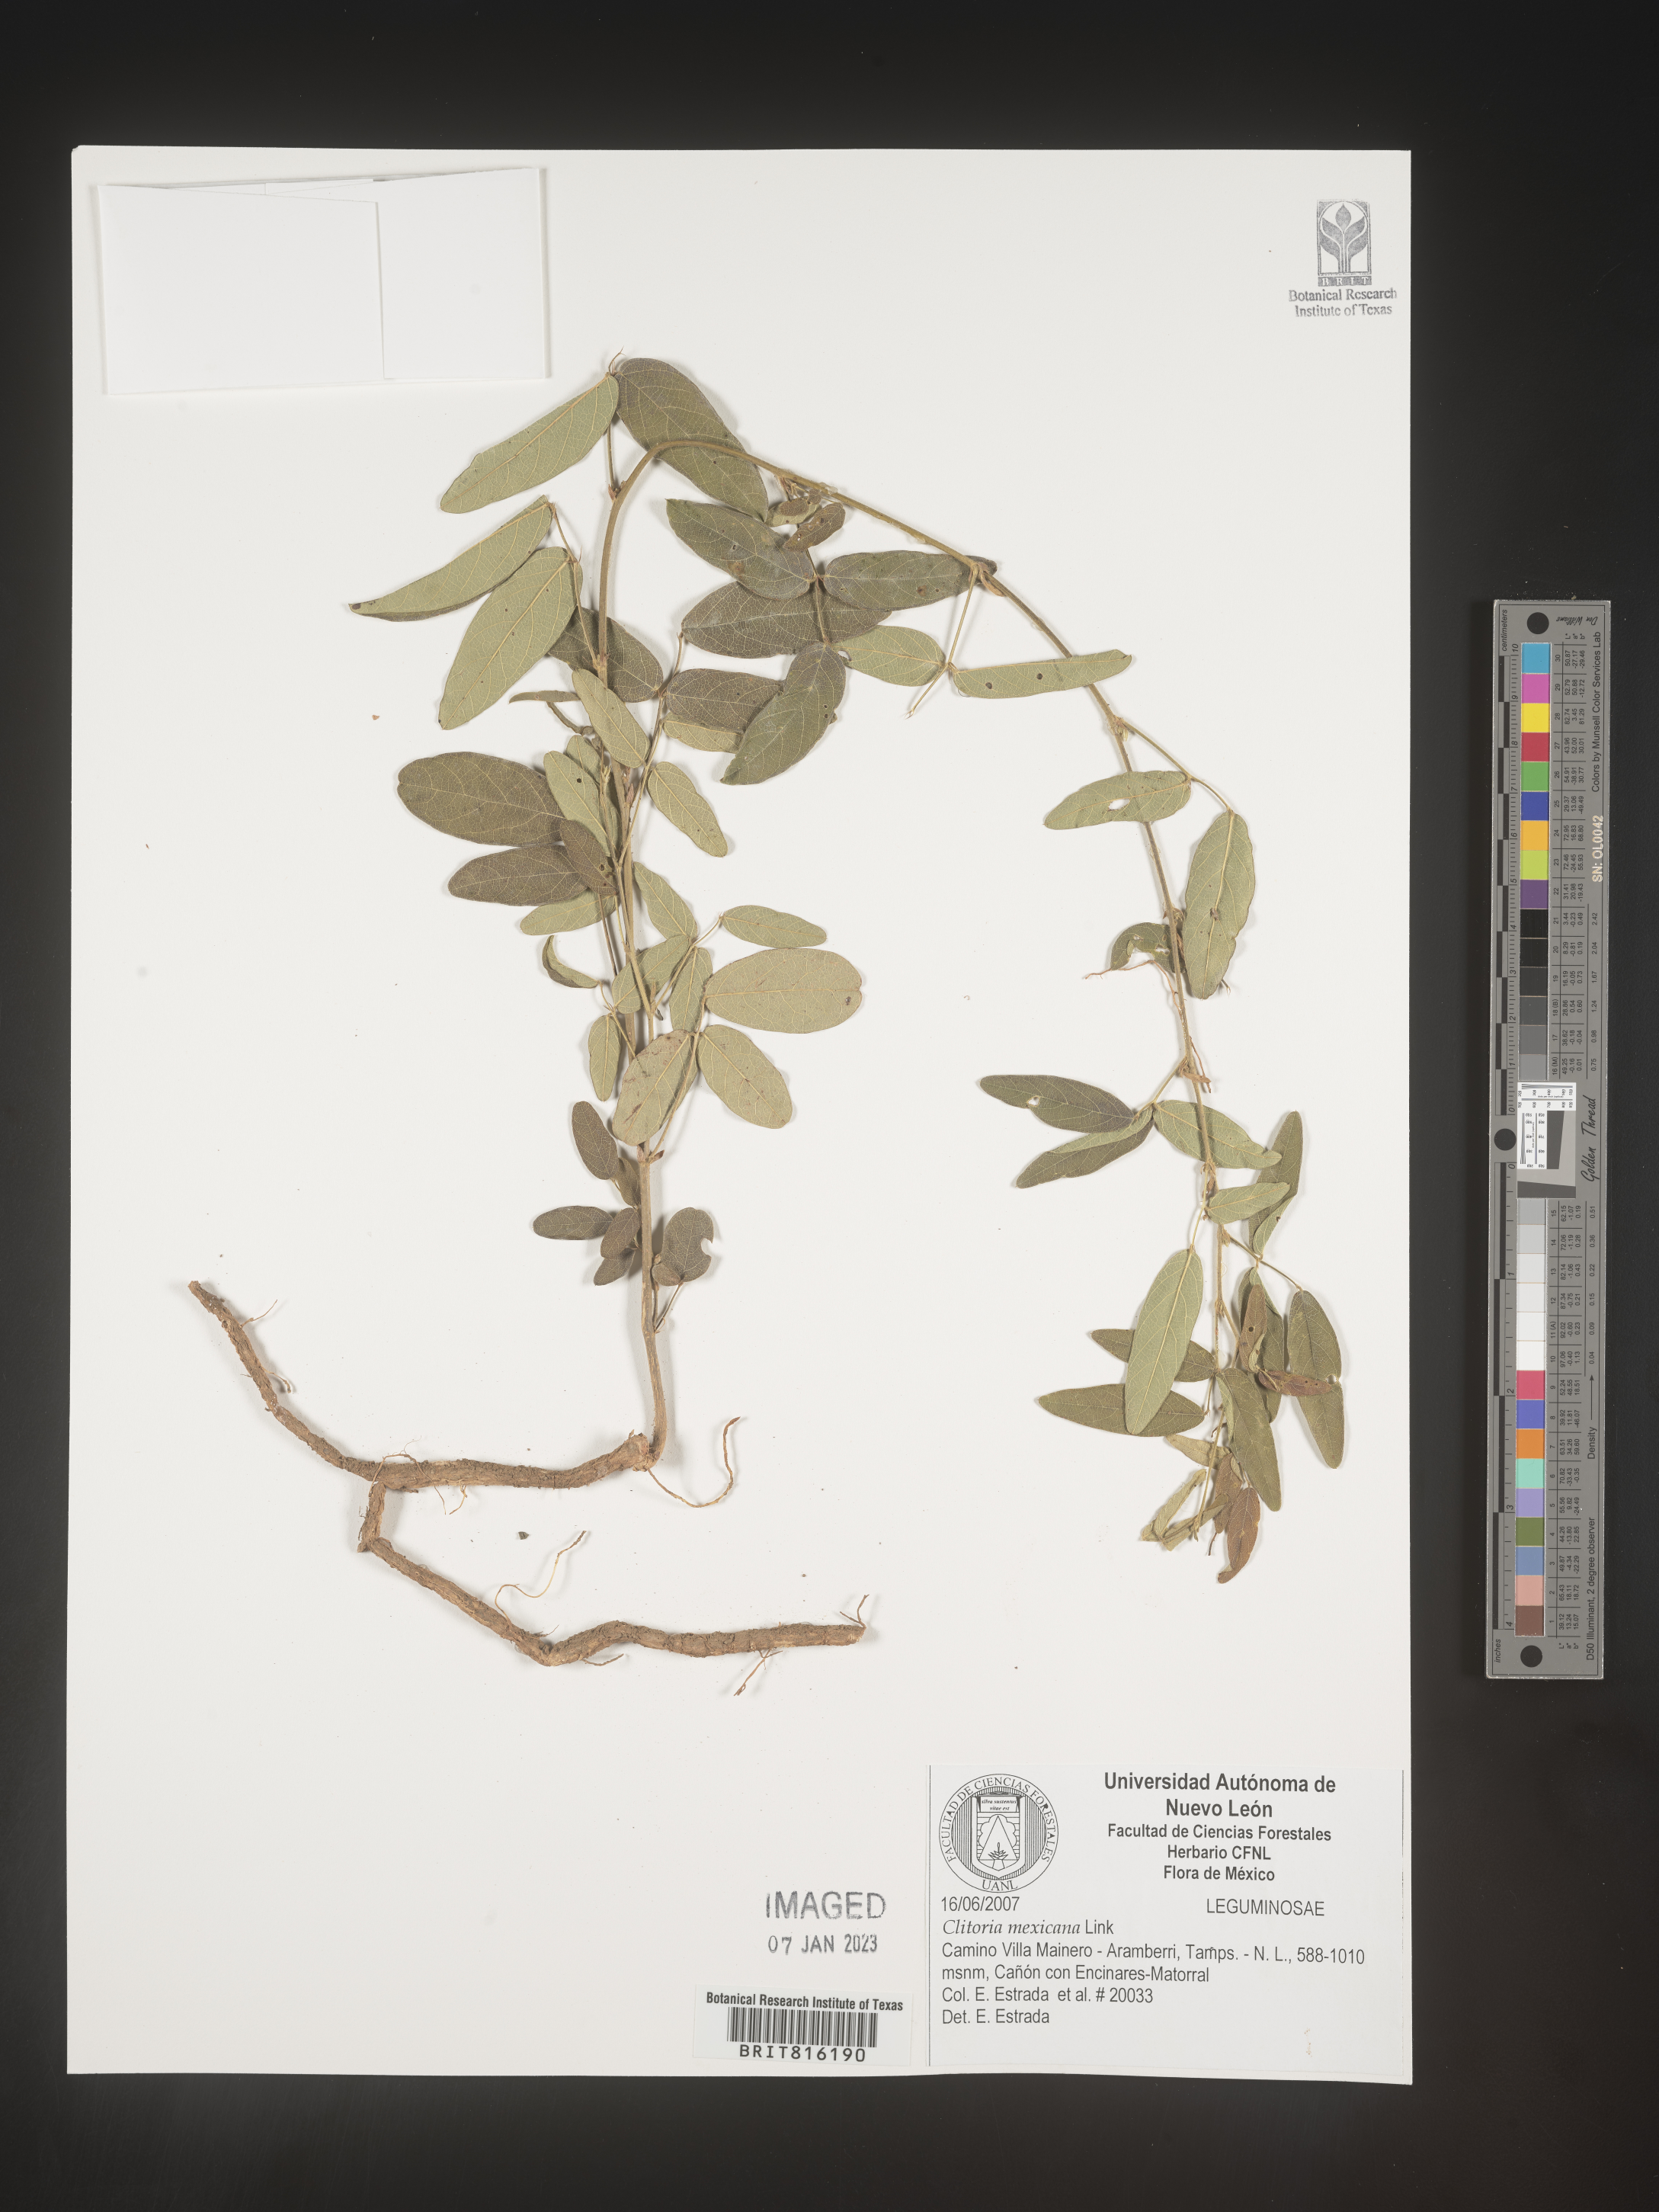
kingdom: Plantae
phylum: Tracheophyta
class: Magnoliopsida
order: Fabales
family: Fabaceae
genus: Clitoria
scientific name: Clitoria
